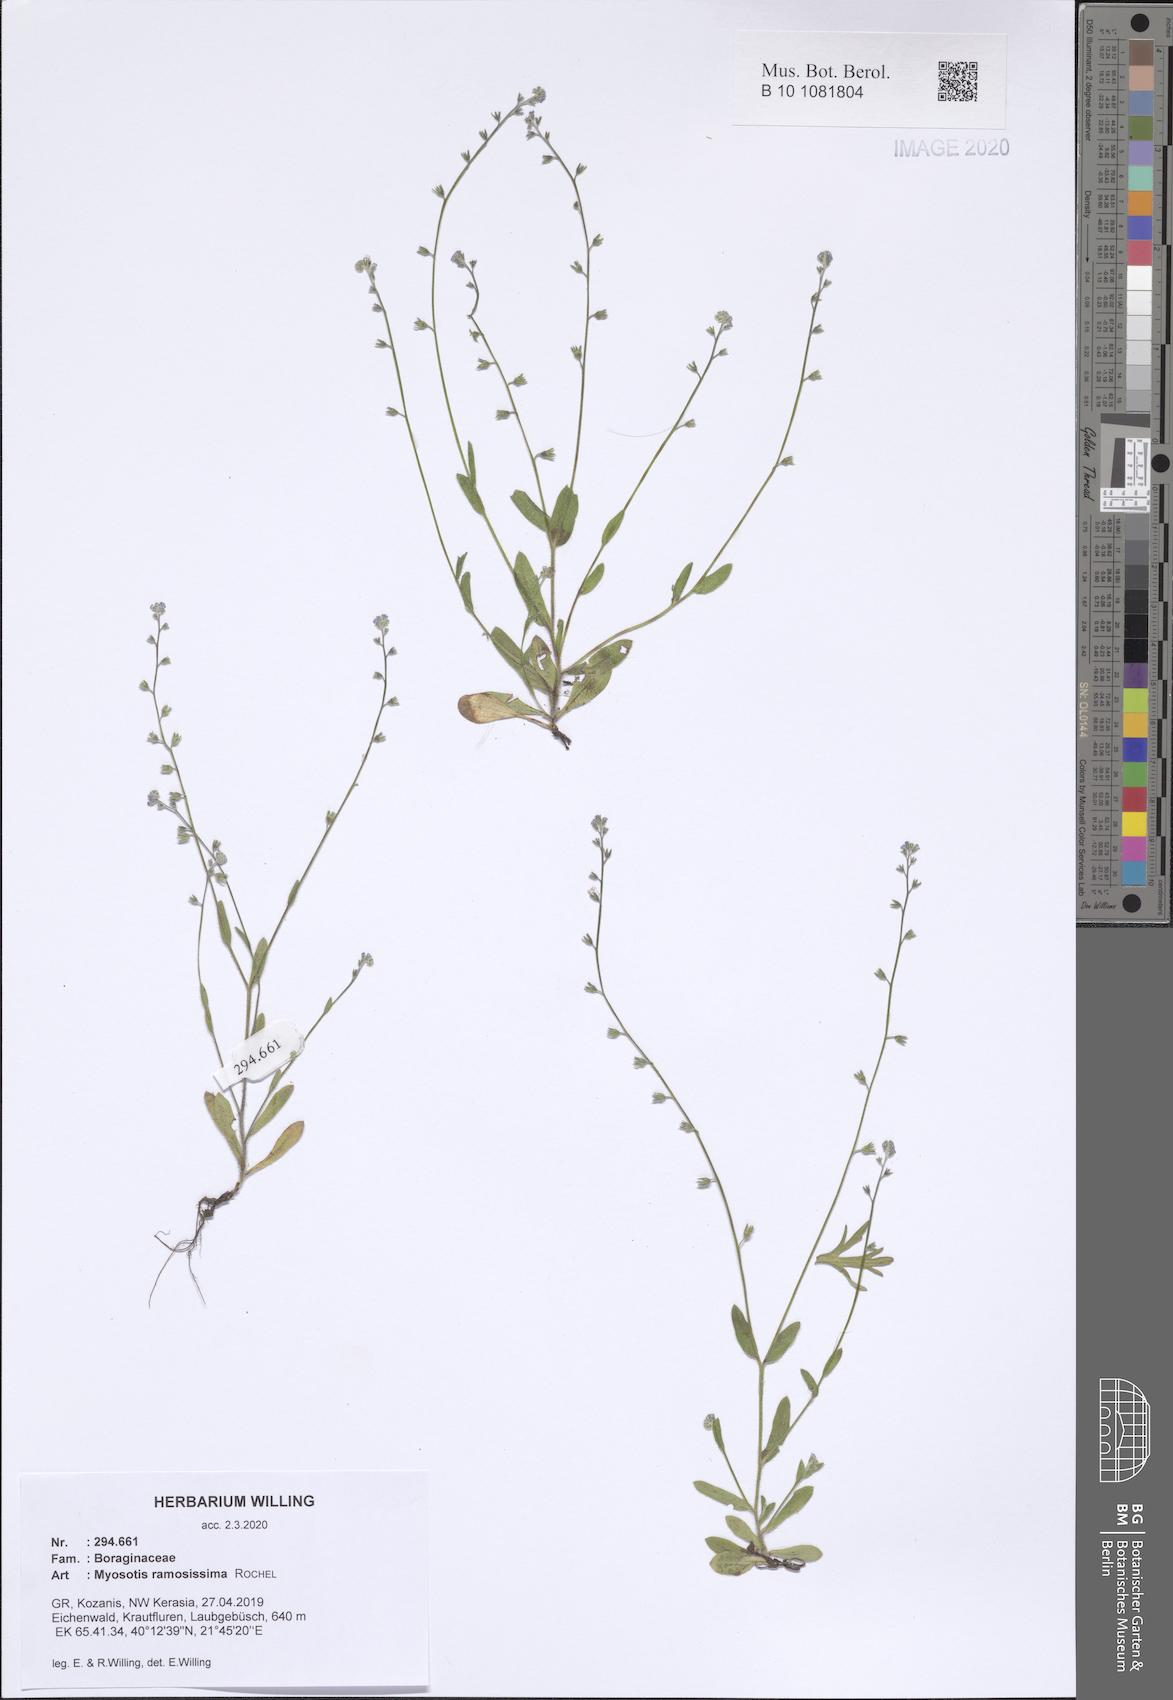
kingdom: Plantae
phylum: Tracheophyta
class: Magnoliopsida
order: Boraginales
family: Boraginaceae
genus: Myosotis
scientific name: Myosotis ramosissima
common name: Early forget-me-not
